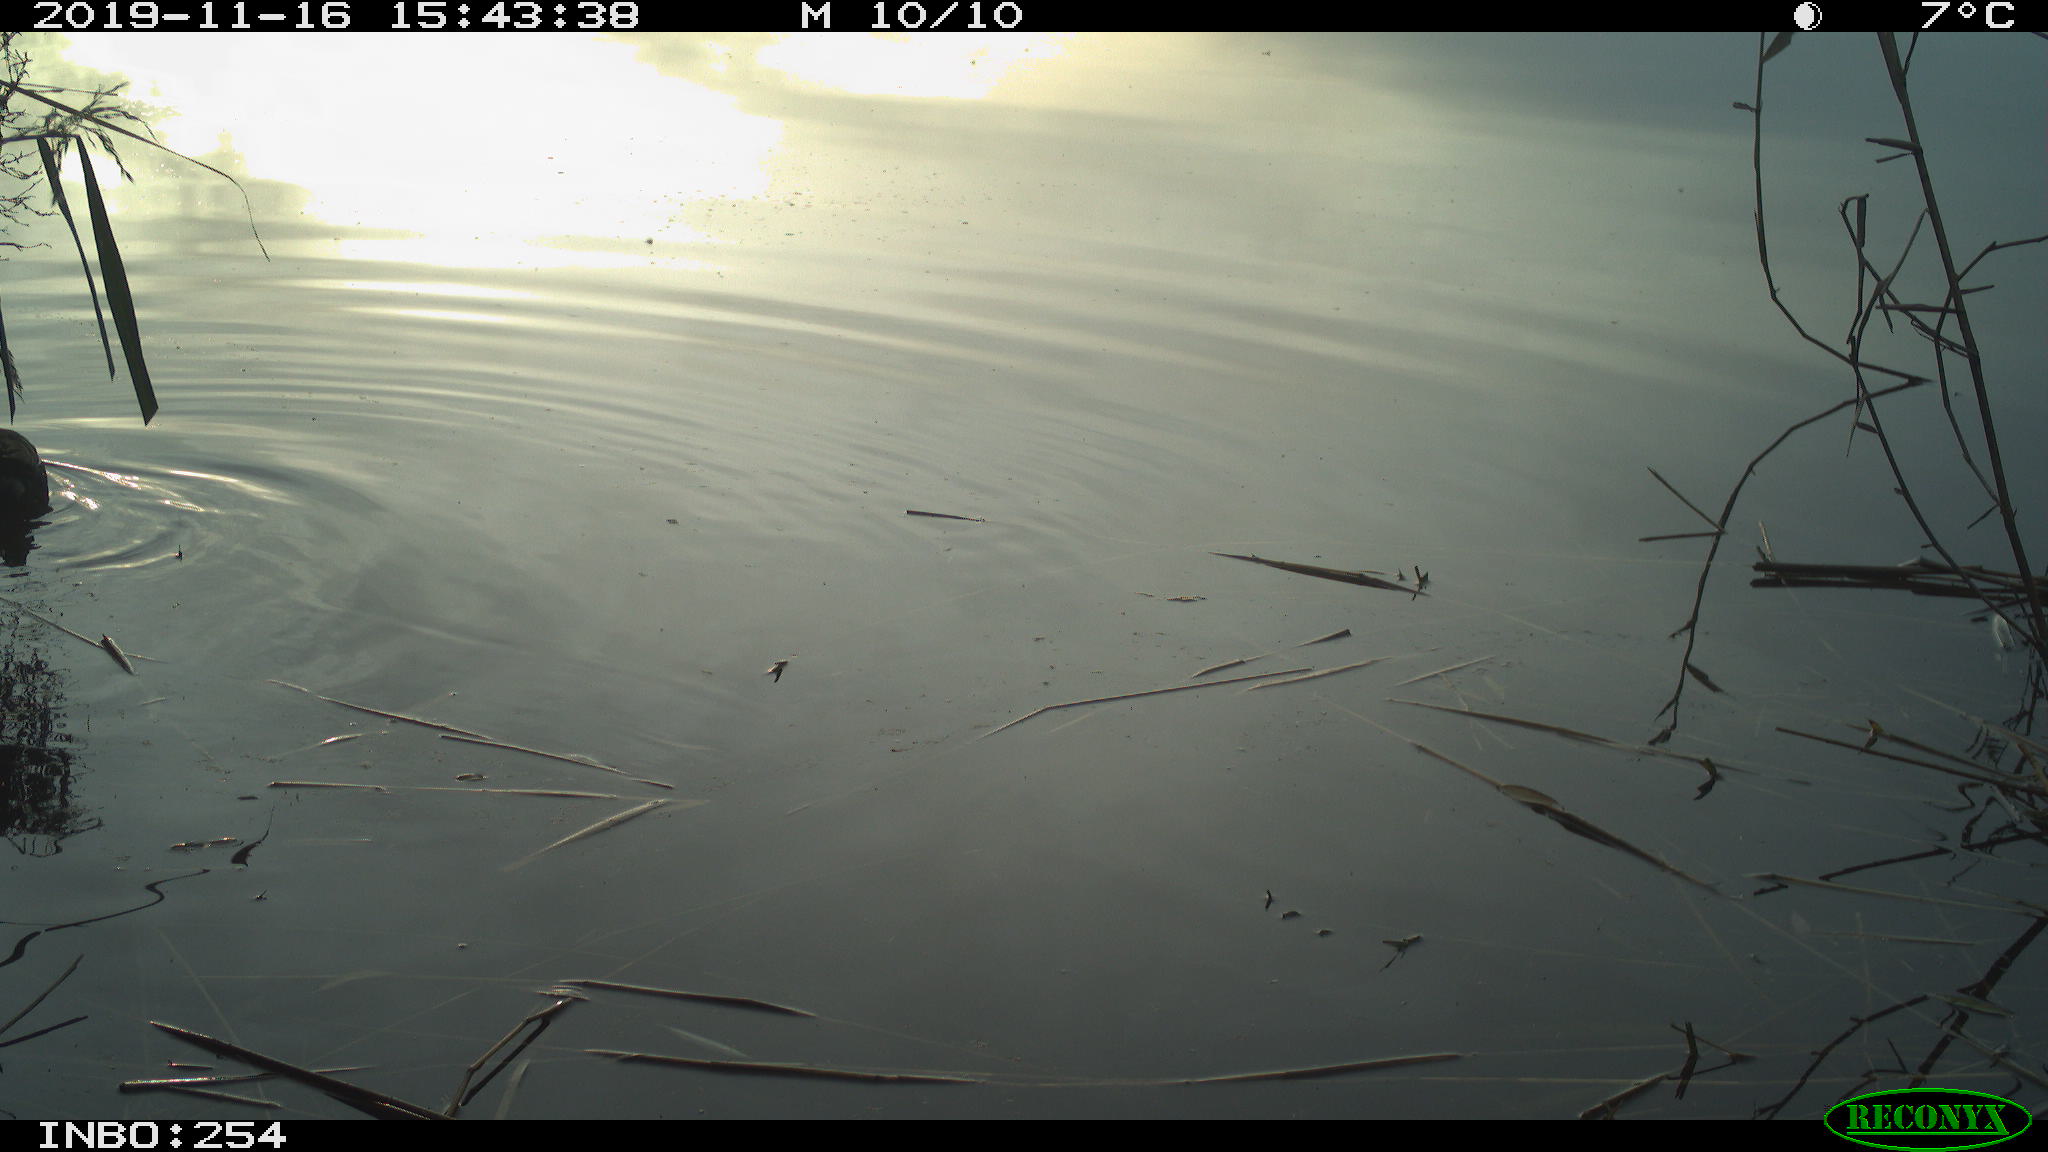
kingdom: Animalia
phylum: Chordata
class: Aves
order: Gruiformes
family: Rallidae
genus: Gallinula
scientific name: Gallinula chloropus
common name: Common moorhen
